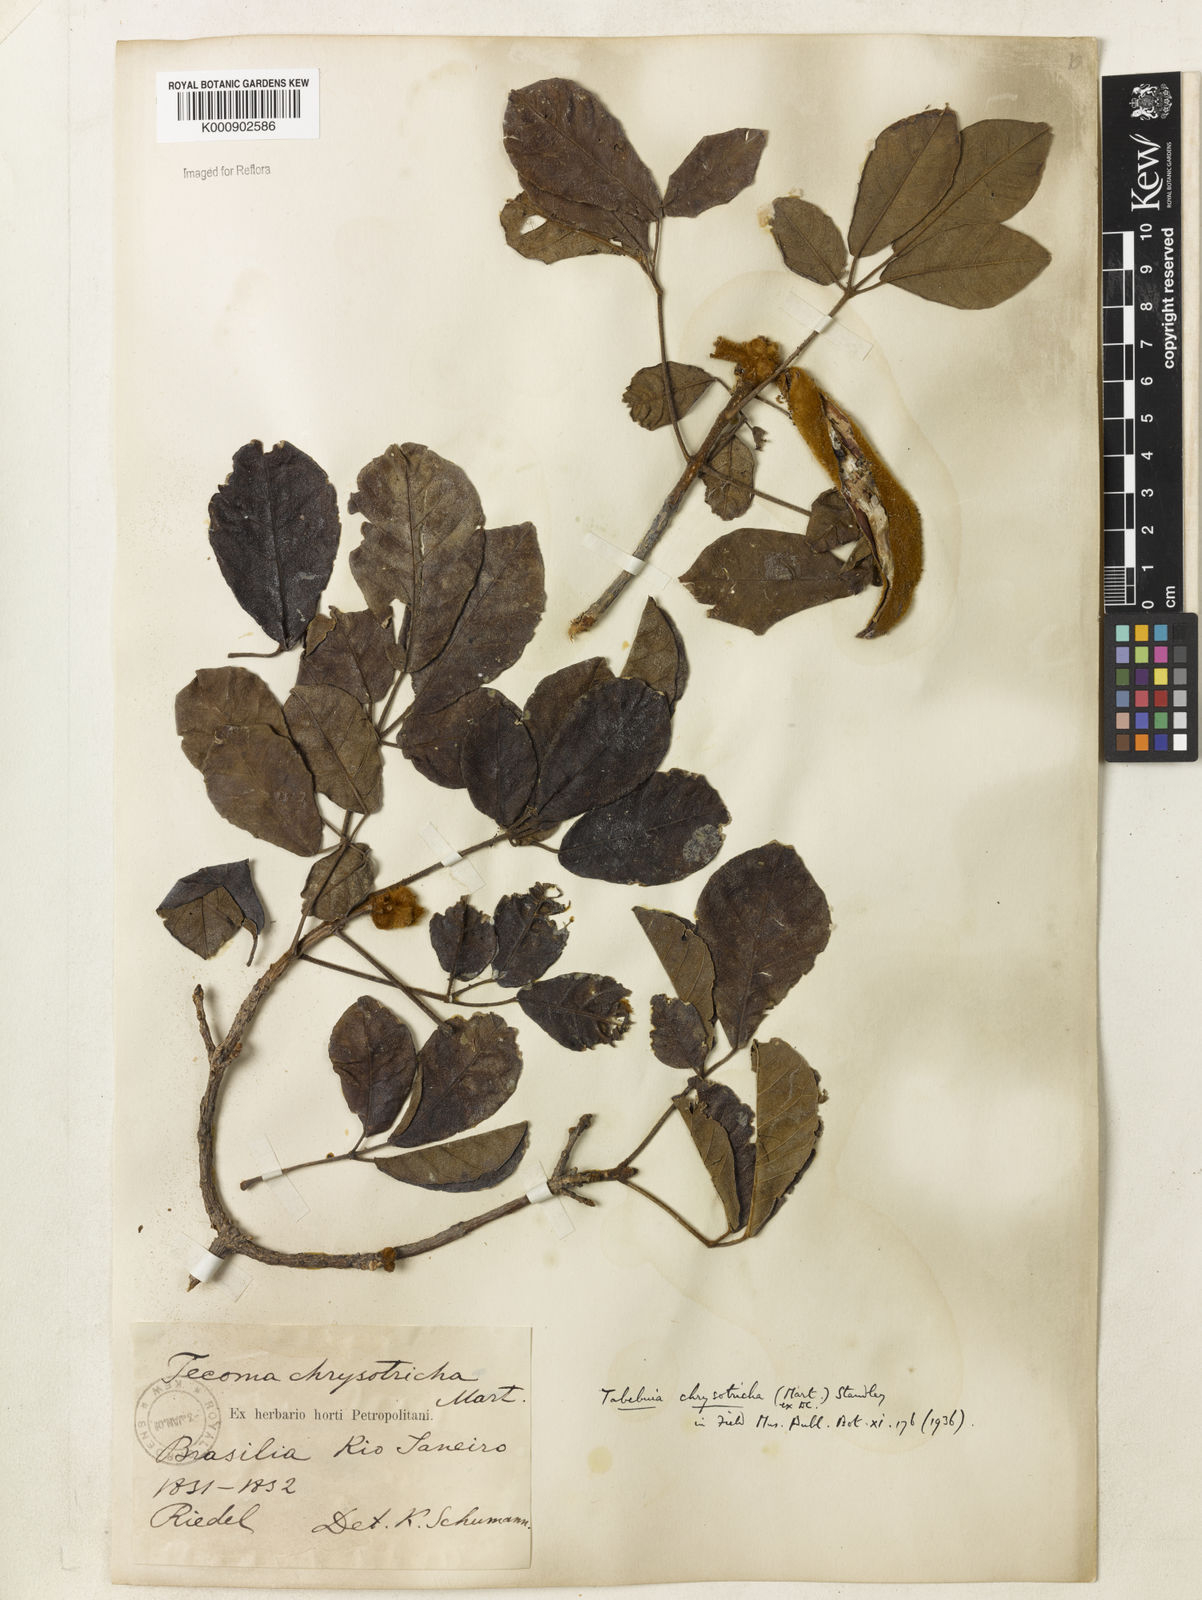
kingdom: Plantae
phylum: Tracheophyta
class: Magnoliopsida
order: Lamiales
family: Bignoniaceae
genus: Handroanthus
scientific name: Handroanthus chrysotrichus
